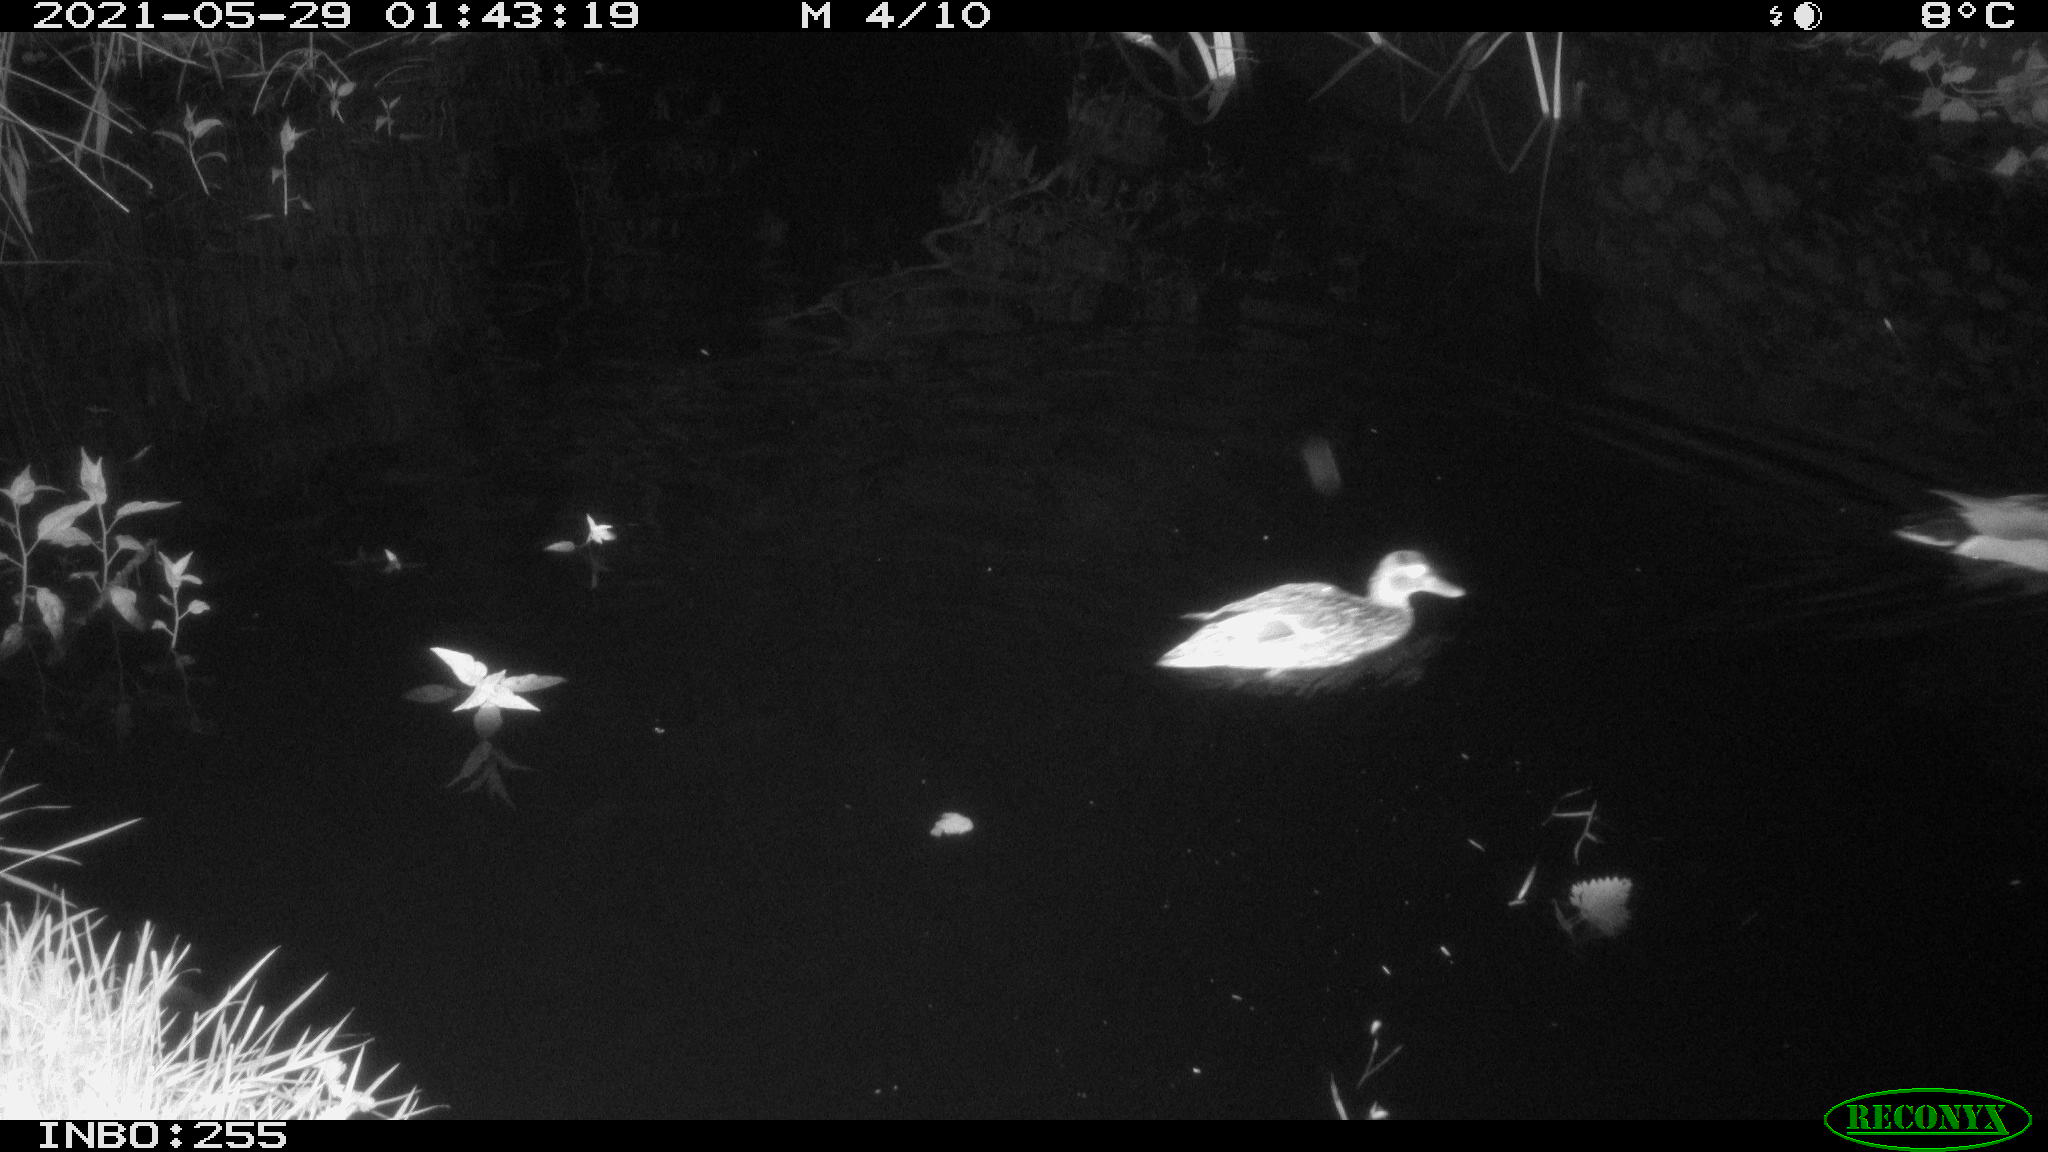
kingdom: Animalia
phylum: Chordata
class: Aves
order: Anseriformes
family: Anatidae
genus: Anas
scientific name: Anas
